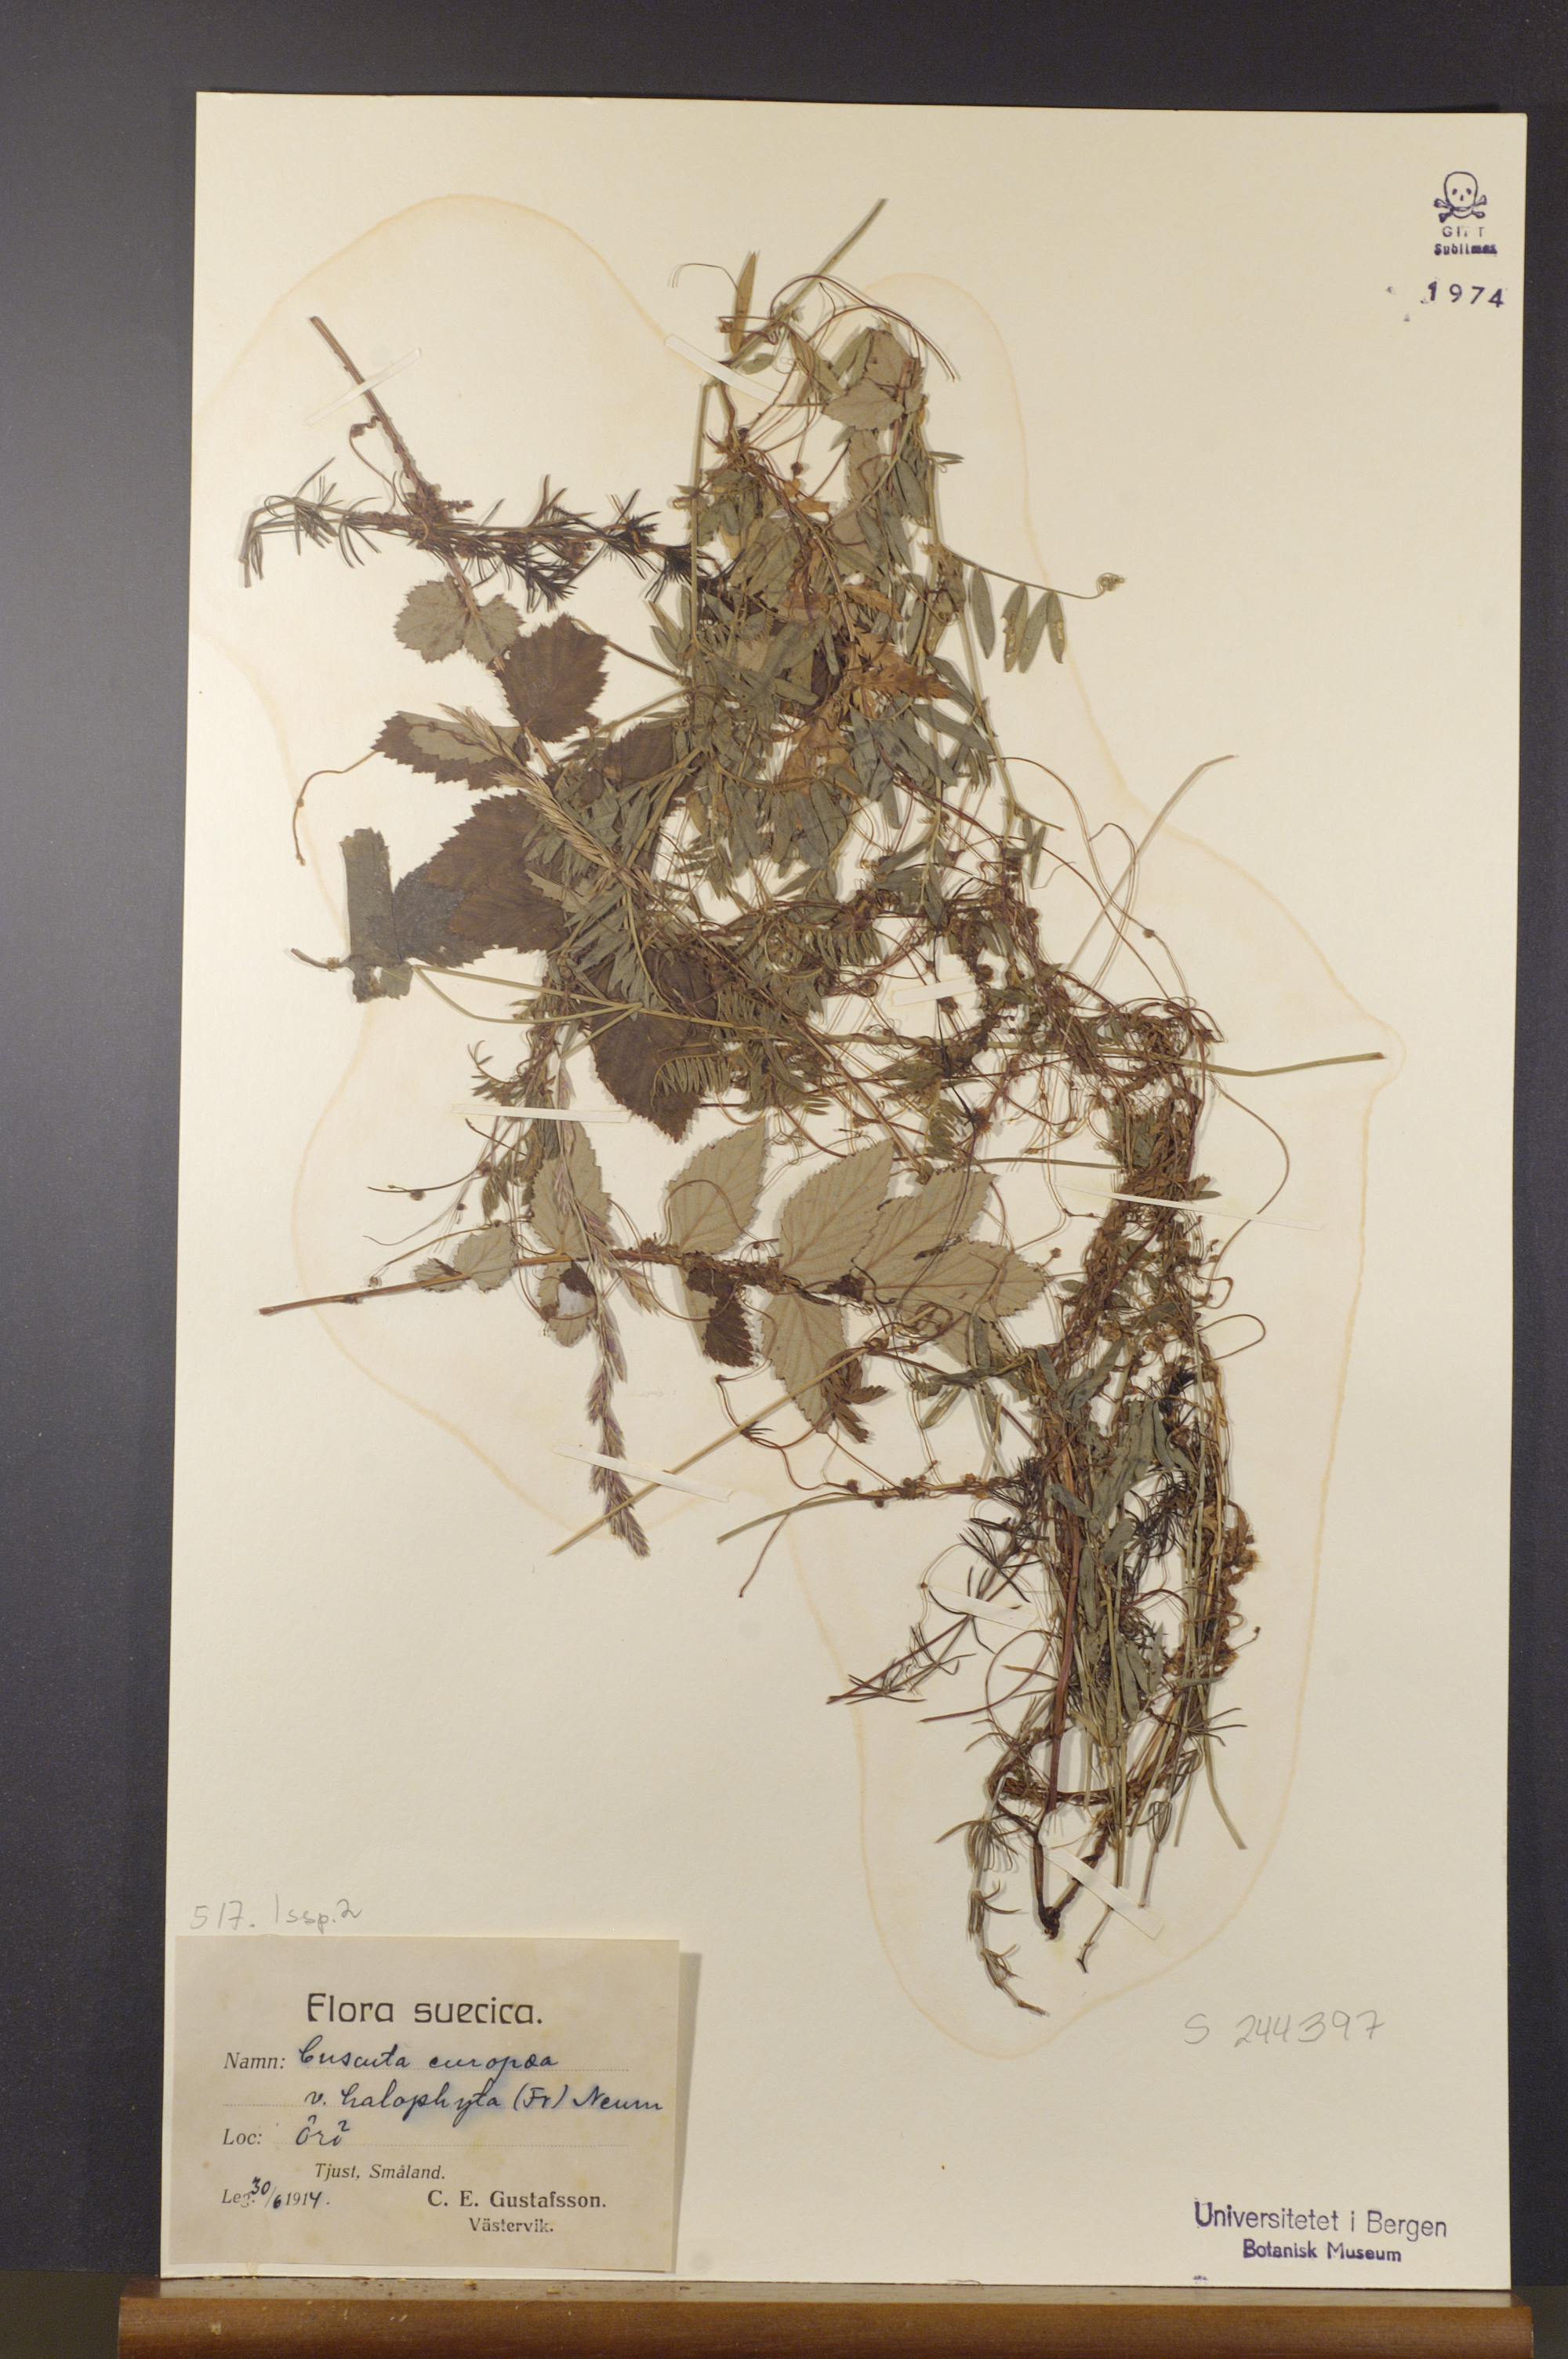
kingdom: Plantae
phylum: Tracheophyta
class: Magnoliopsida
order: Solanales
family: Convolvulaceae
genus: Cuscuta
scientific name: Cuscuta europaea
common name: Greater dodder
